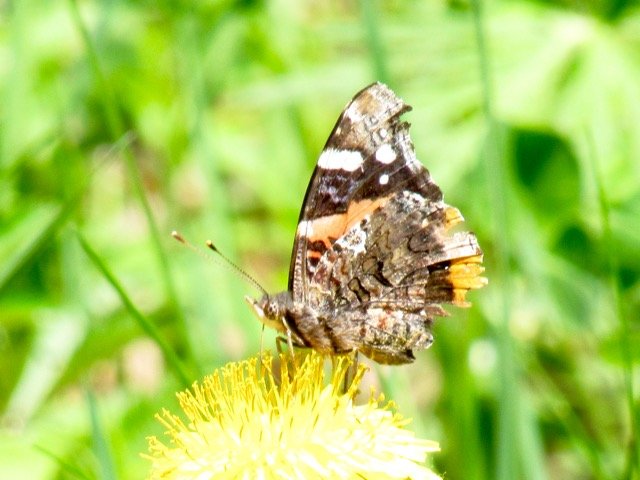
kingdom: Animalia
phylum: Arthropoda
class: Insecta
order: Lepidoptera
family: Nymphalidae
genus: Vanessa
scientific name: Vanessa atalanta
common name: Red Admiral
